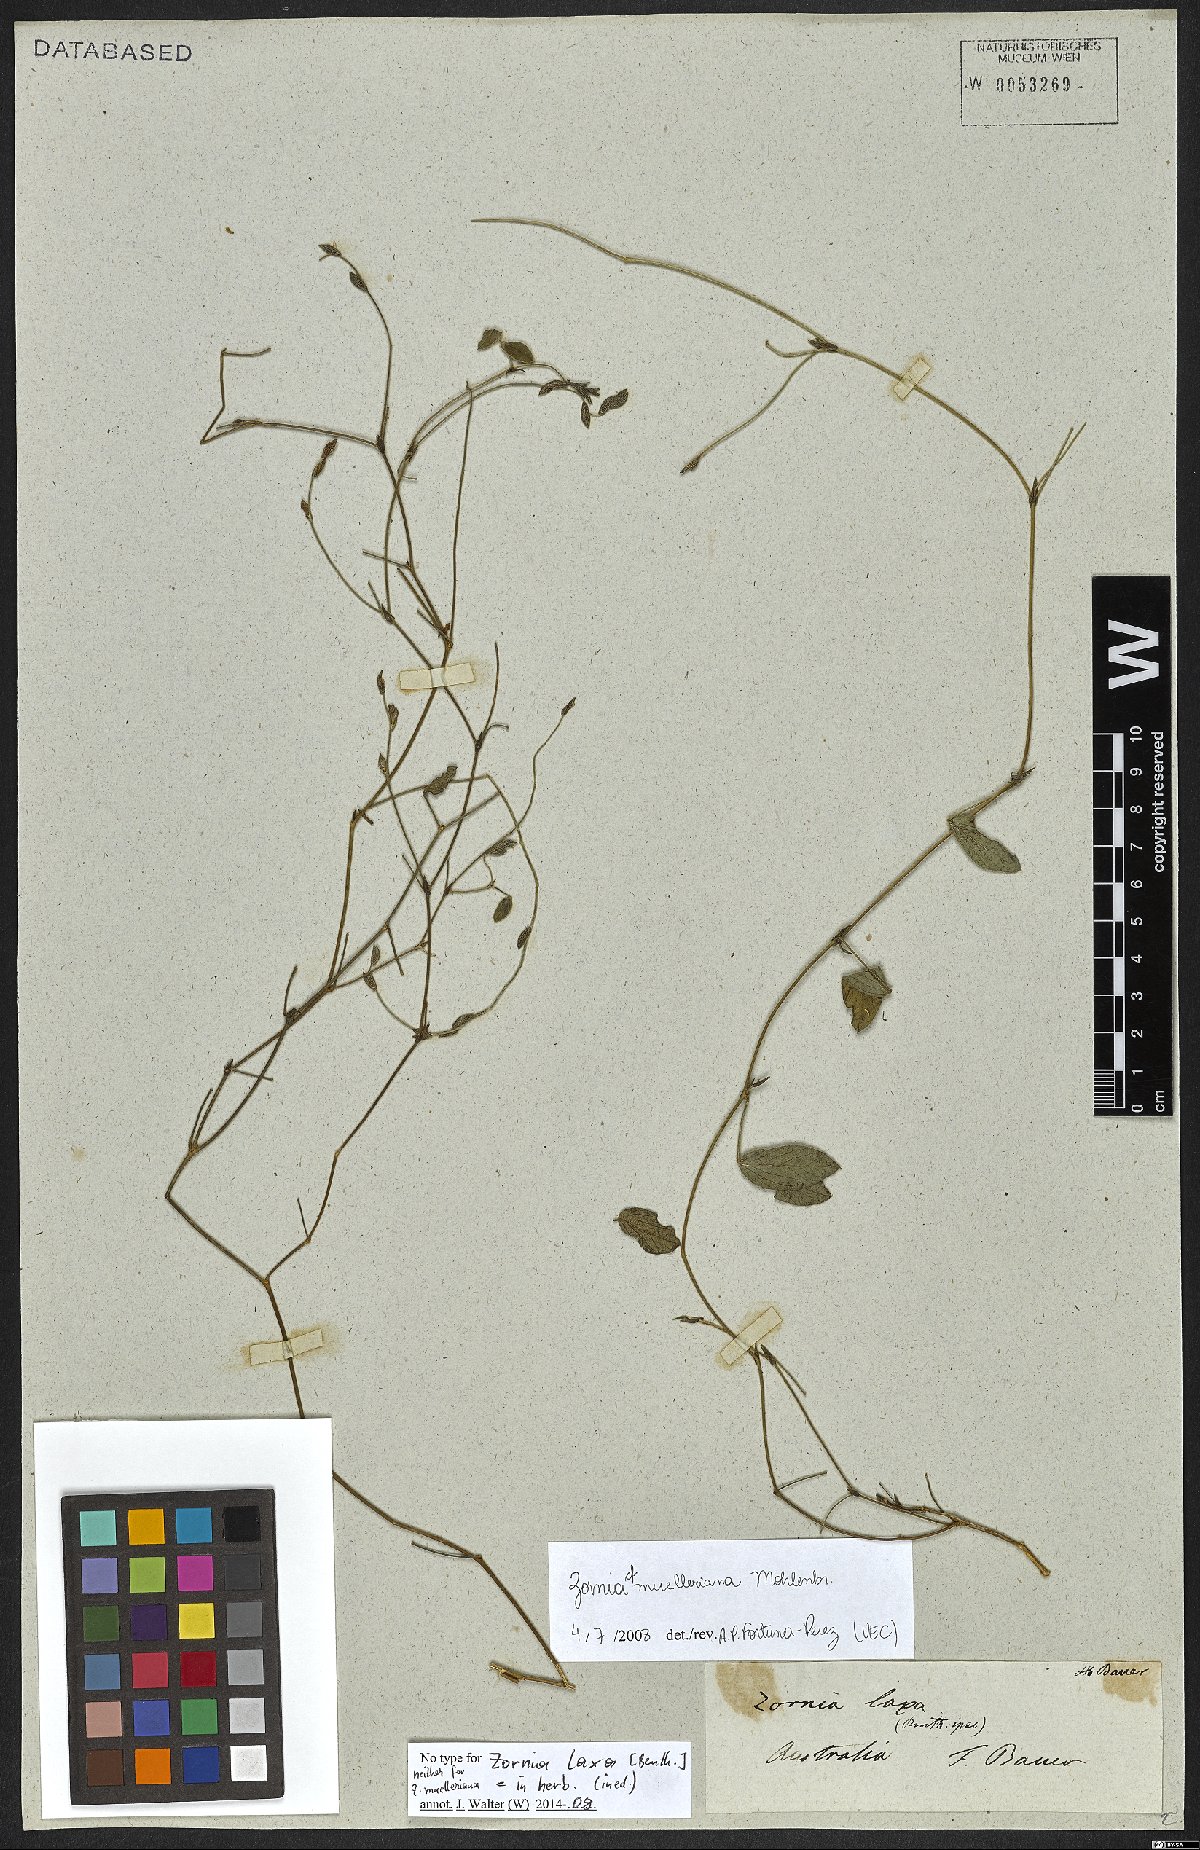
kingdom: Plantae
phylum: Tracheophyta
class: Magnoliopsida
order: Fabales
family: Fabaceae
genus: Zornia
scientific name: Zornia muelleriana
